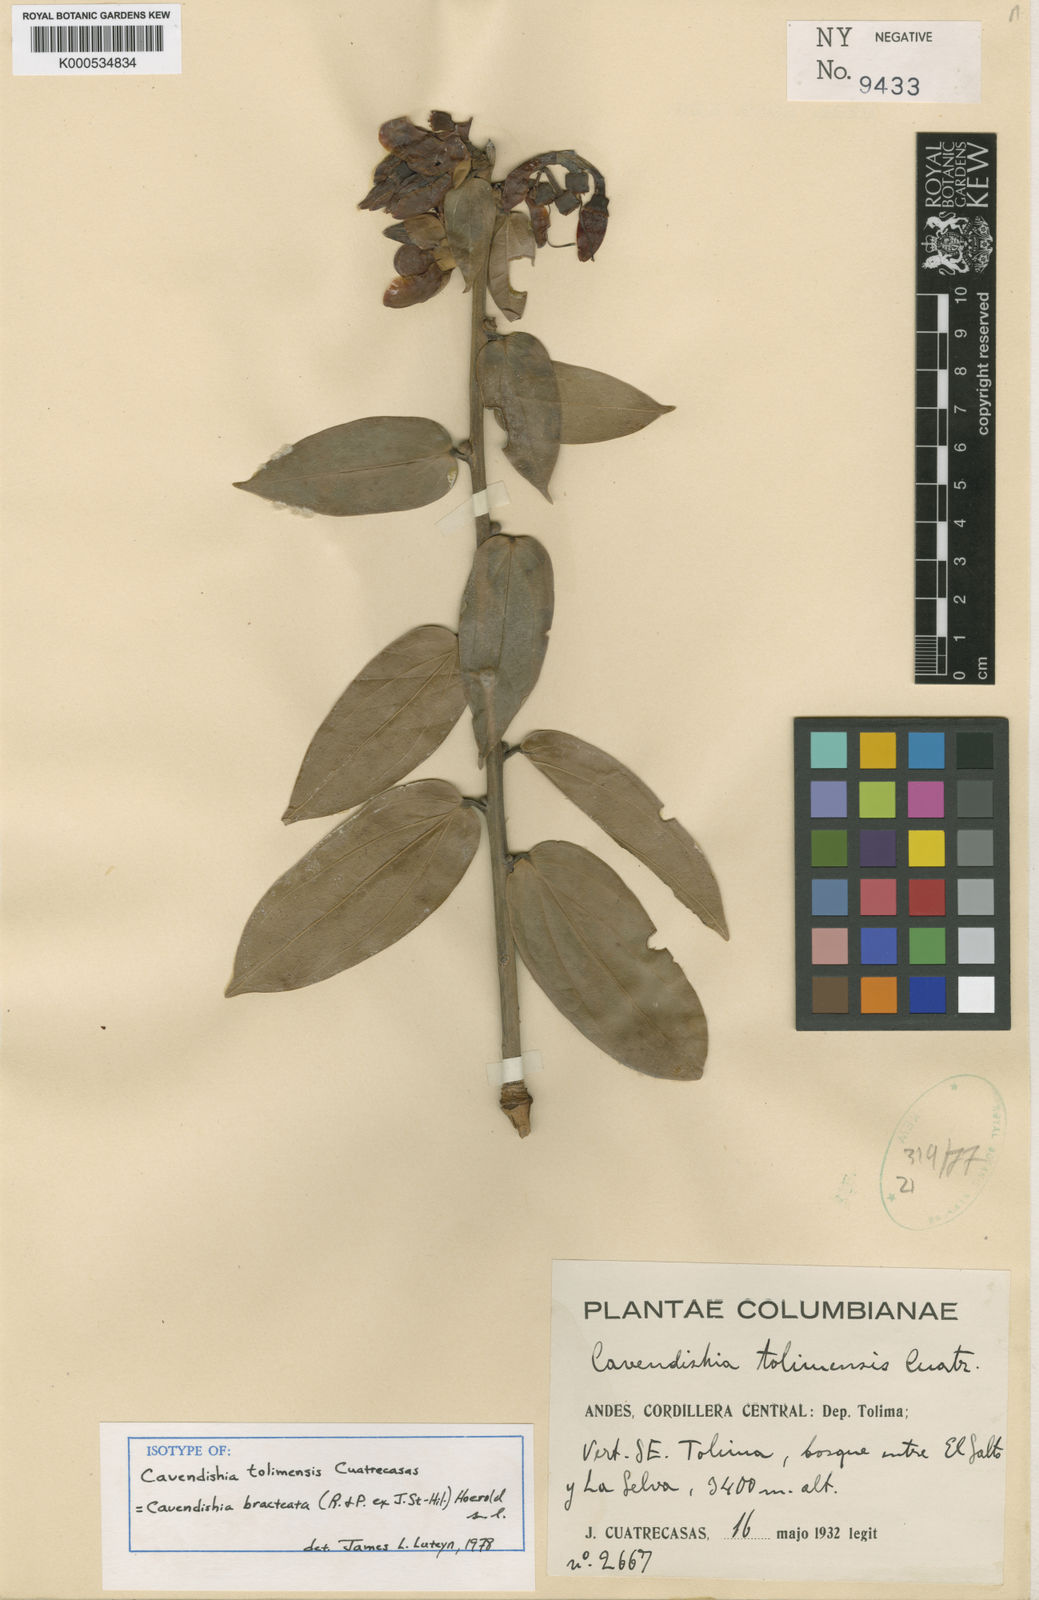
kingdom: Plantae
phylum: Tracheophyta
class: Magnoliopsida
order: Ericales
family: Ericaceae
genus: Cavendishia
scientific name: Cavendishia bracteata
